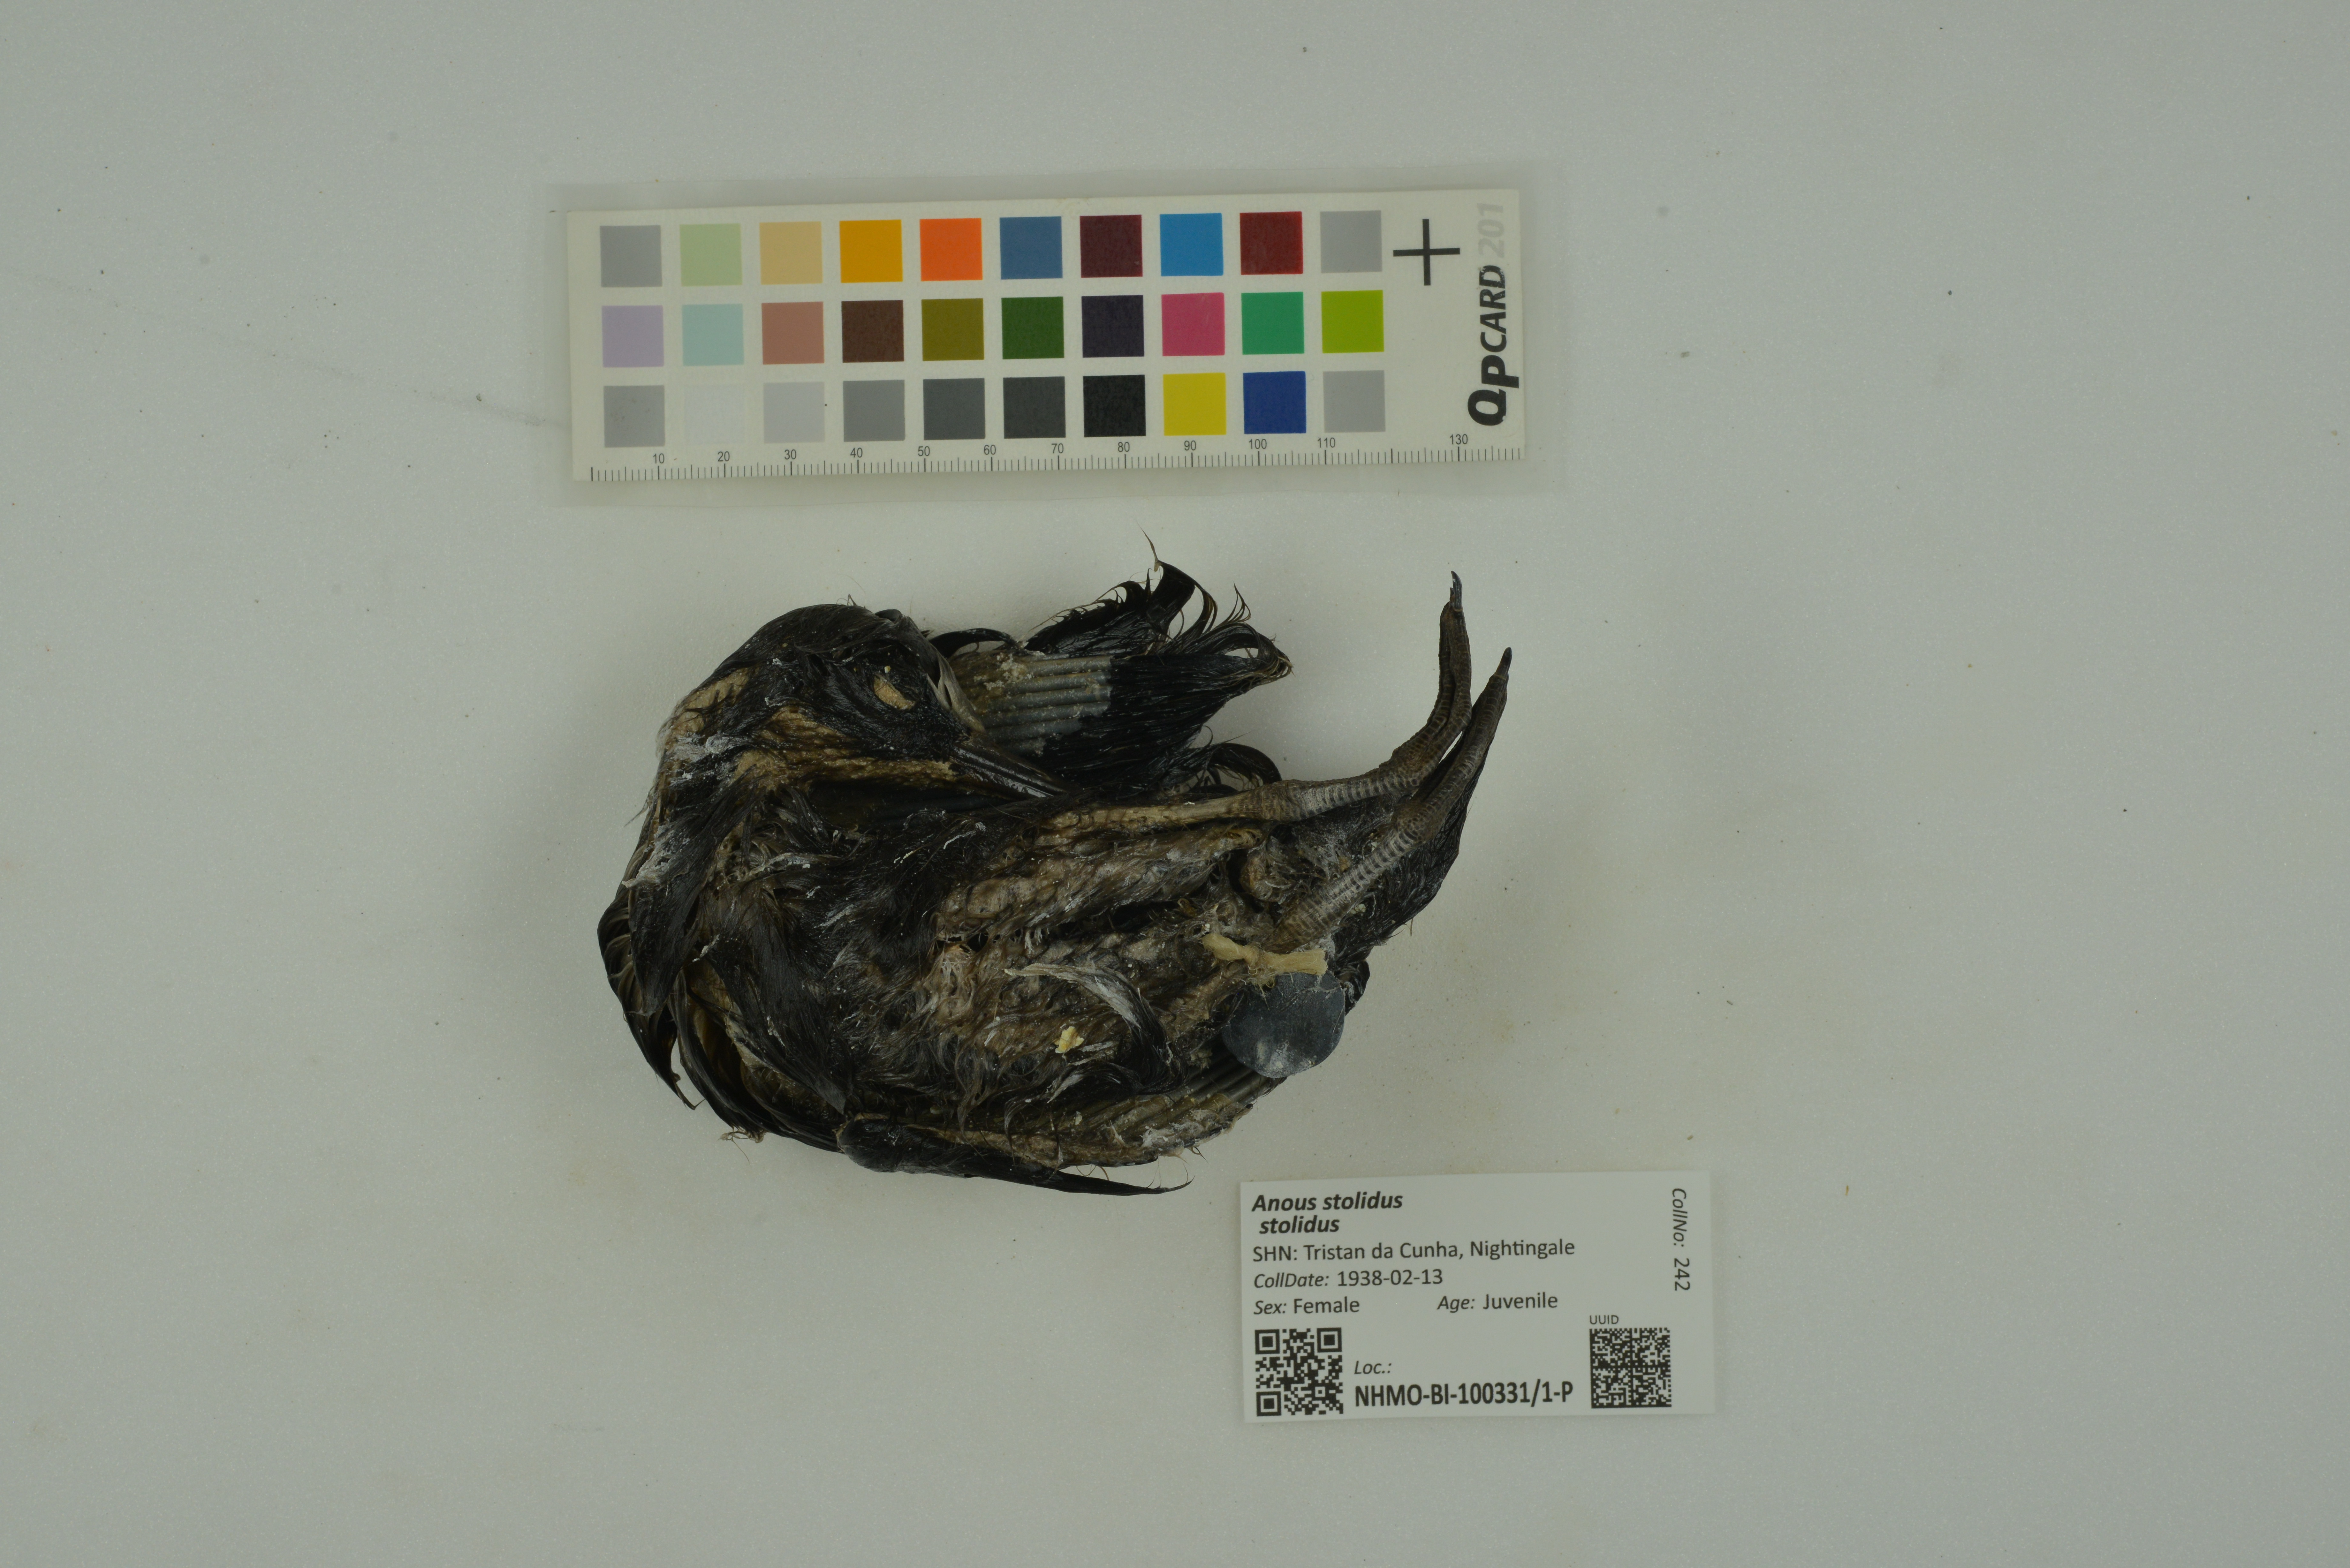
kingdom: Animalia
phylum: Chordata
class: Aves
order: Charadriiformes
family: Laridae
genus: Anous
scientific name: Anous stolidus
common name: Brown noddy
